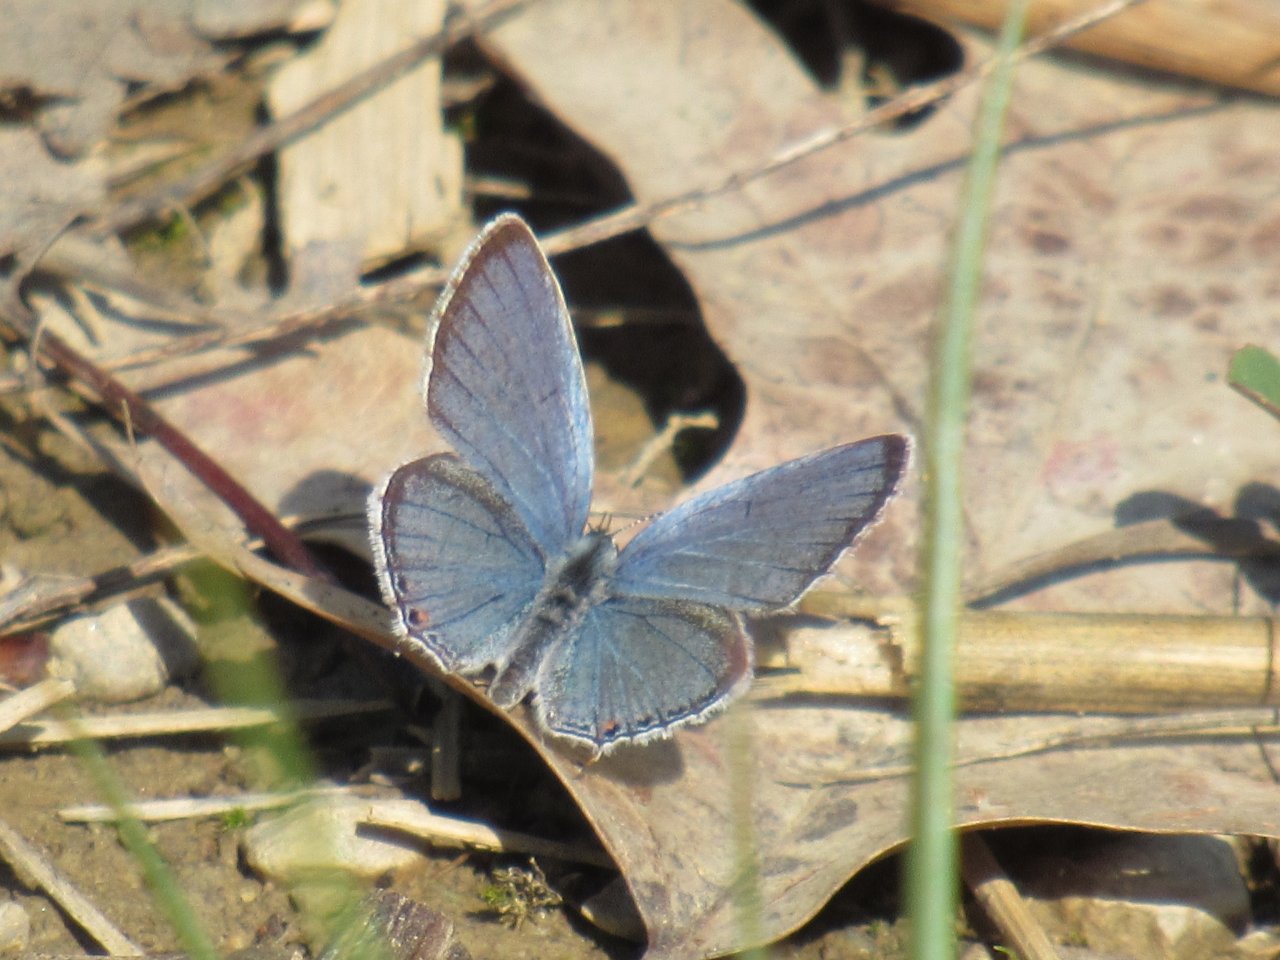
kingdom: Animalia
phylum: Arthropoda
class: Insecta
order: Lepidoptera
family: Lycaenidae
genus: Elkalyce
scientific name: Elkalyce comyntas
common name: Eastern Tailed-Blue
